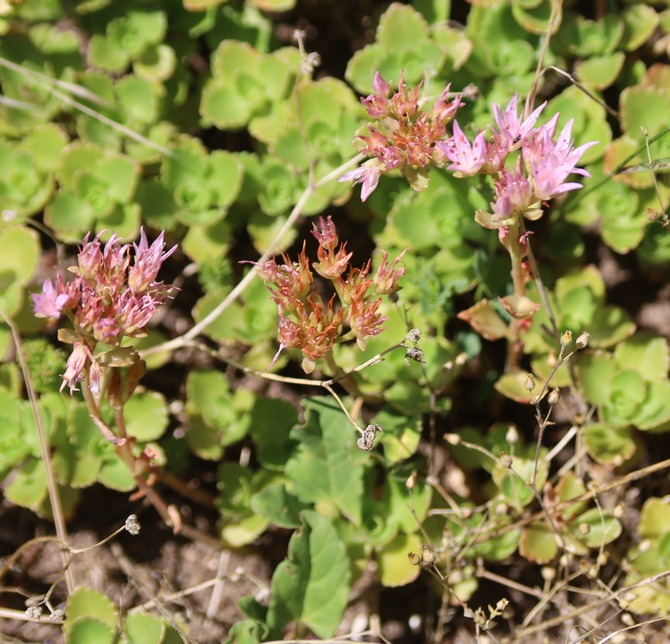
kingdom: Plantae
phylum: Tracheophyta
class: Magnoliopsida
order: Saxifragales
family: Crassulaceae
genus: Phedimus
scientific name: Phedimus spurius
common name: Rød stenurt
